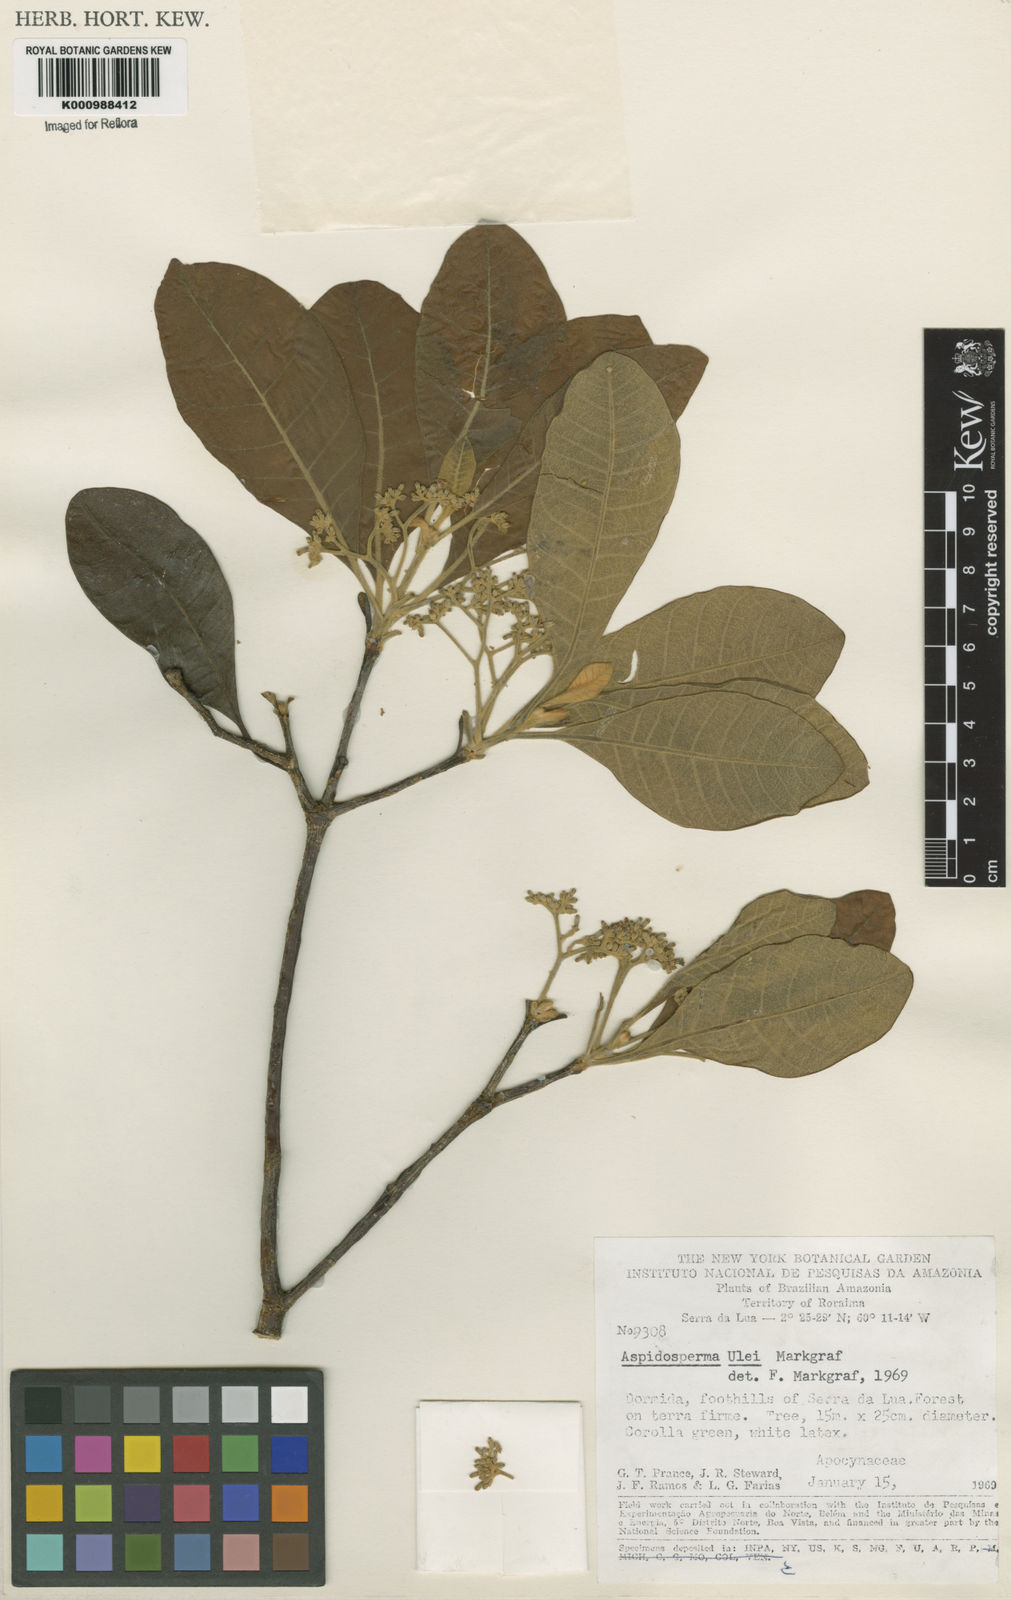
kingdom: Plantae
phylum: Tracheophyta
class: Magnoliopsida
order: Gentianales
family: Apocynaceae
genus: Aspidosperma
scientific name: Aspidosperma ulei
